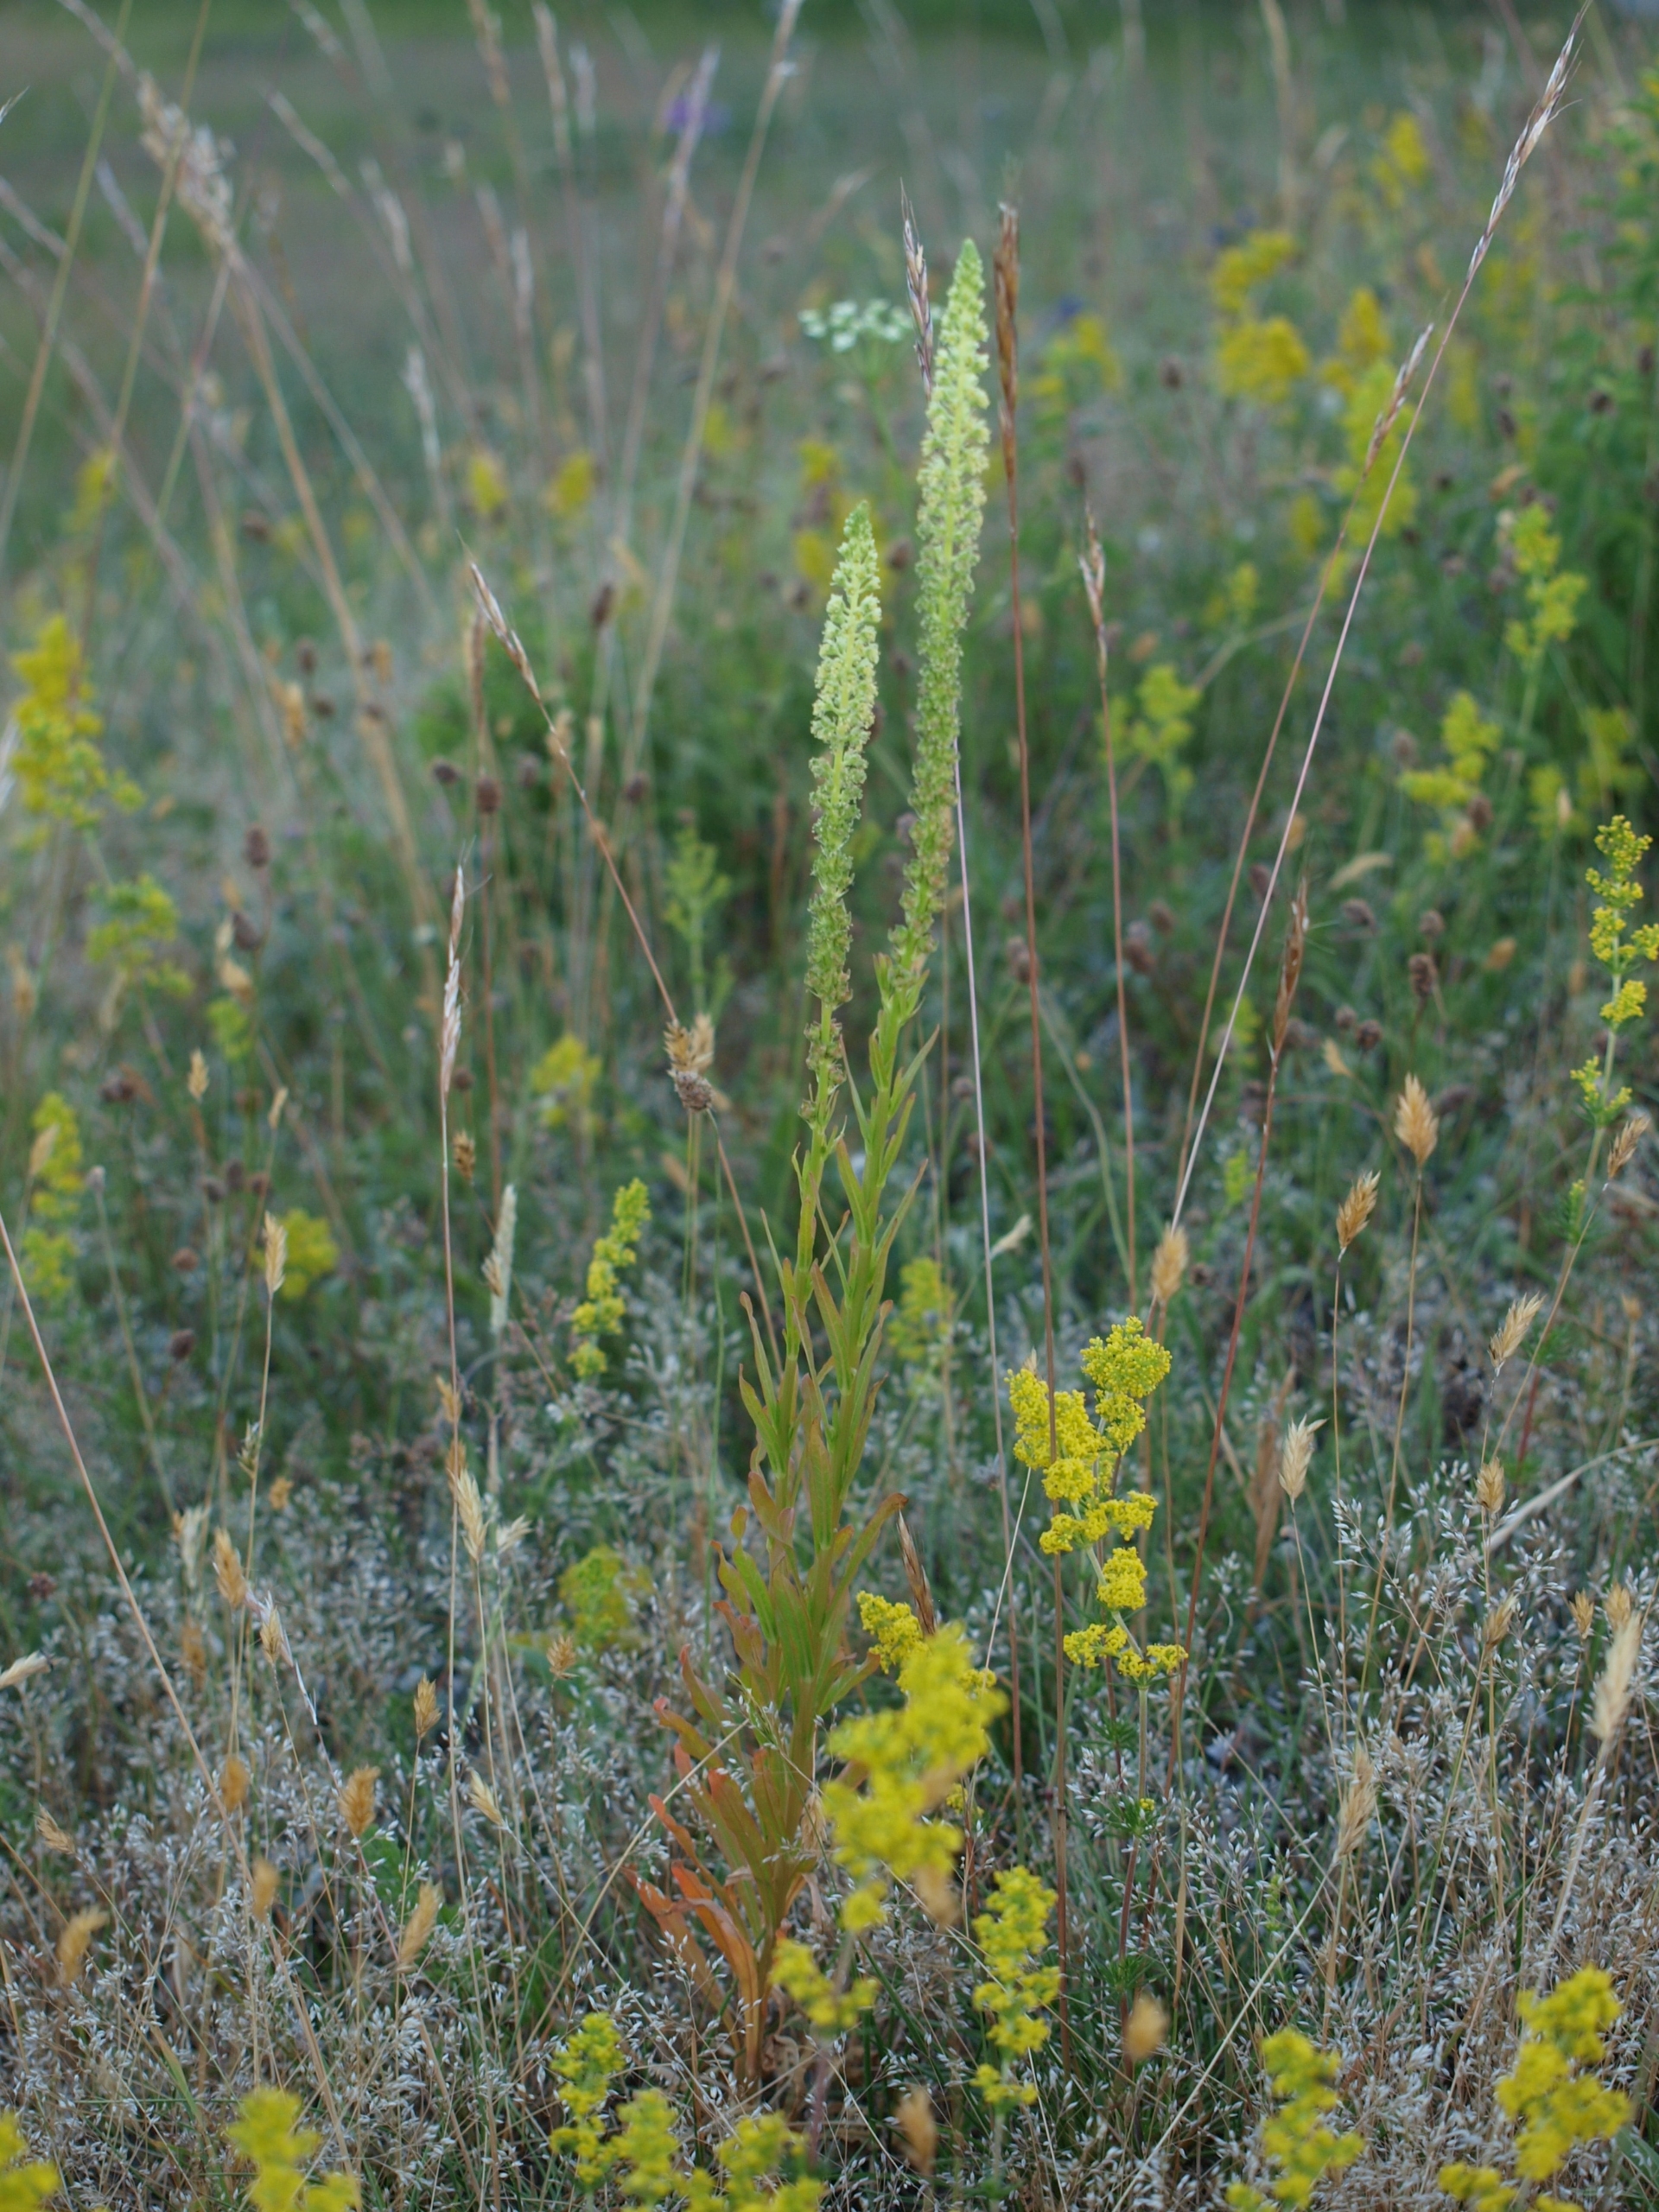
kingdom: Plantae
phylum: Tracheophyta
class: Magnoliopsida
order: Brassicales
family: Resedaceae
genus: Reseda
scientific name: Reseda luteola
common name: Farve-reseda
